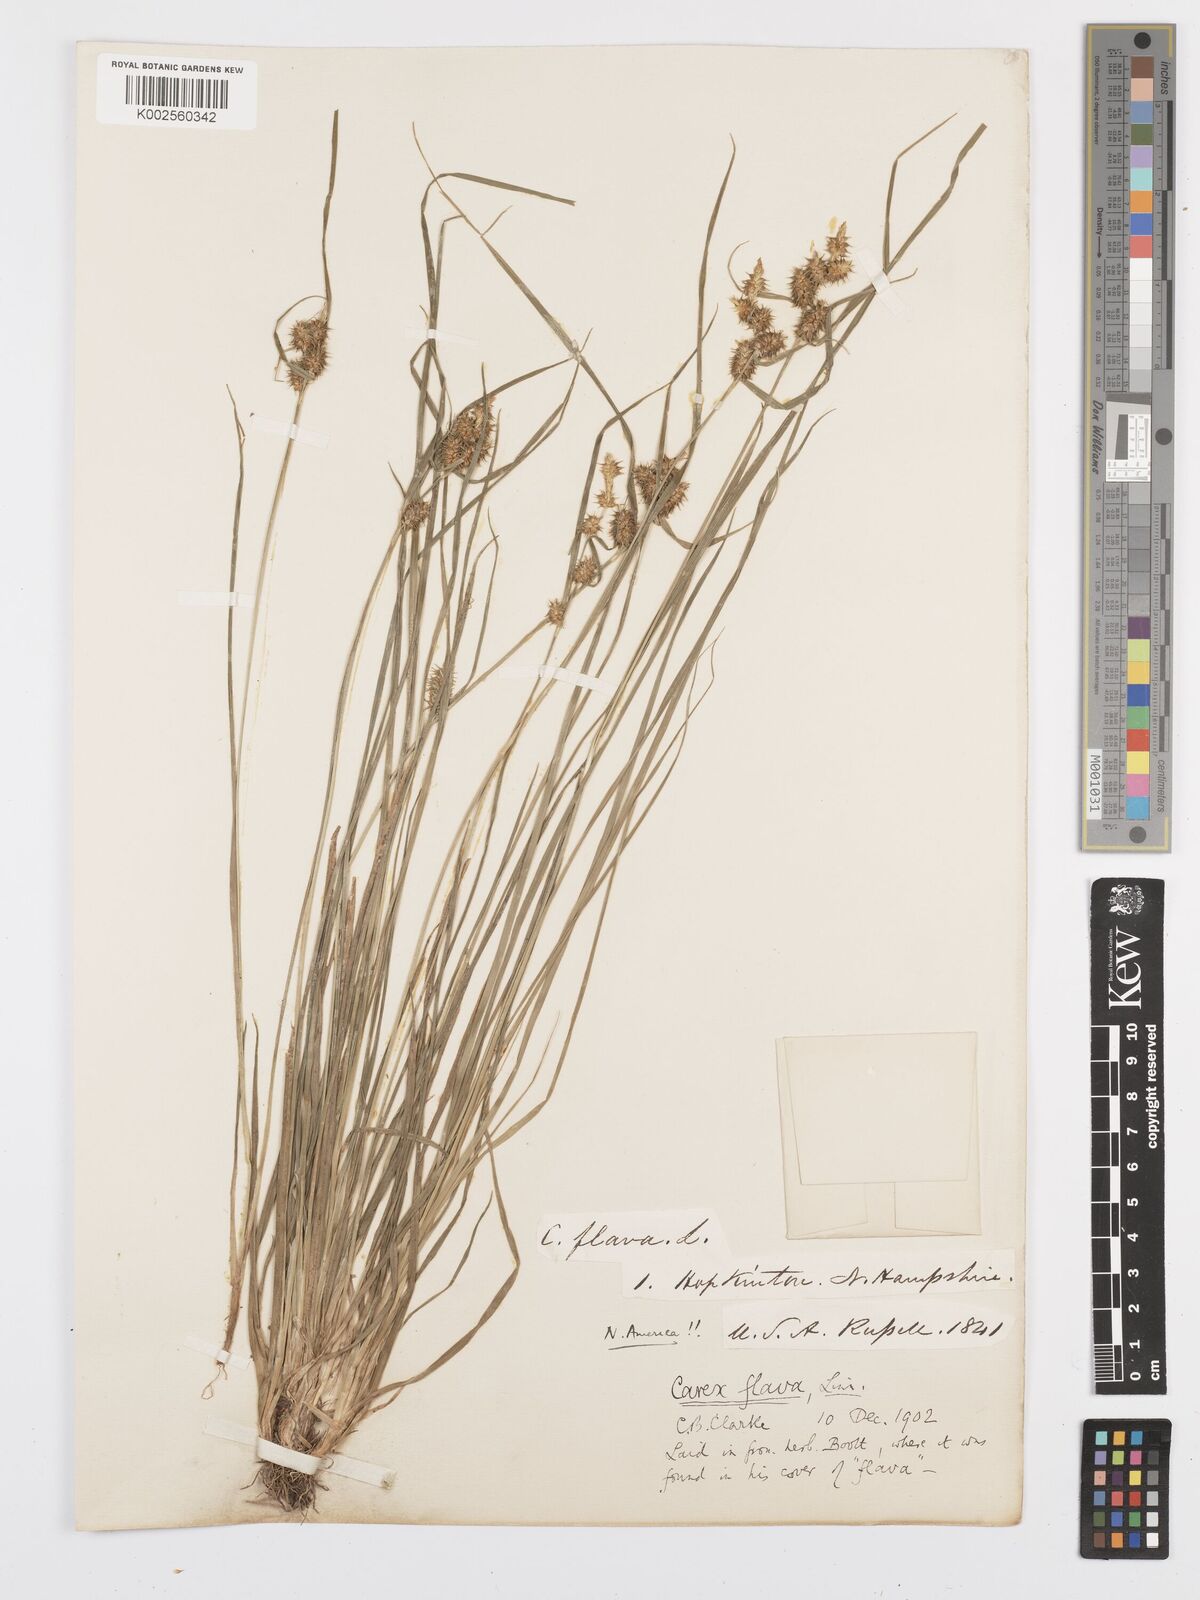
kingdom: Plantae
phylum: Tracheophyta
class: Liliopsida
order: Poales
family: Cyperaceae
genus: Carex
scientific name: Carex flava
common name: Large yellow-sedge
